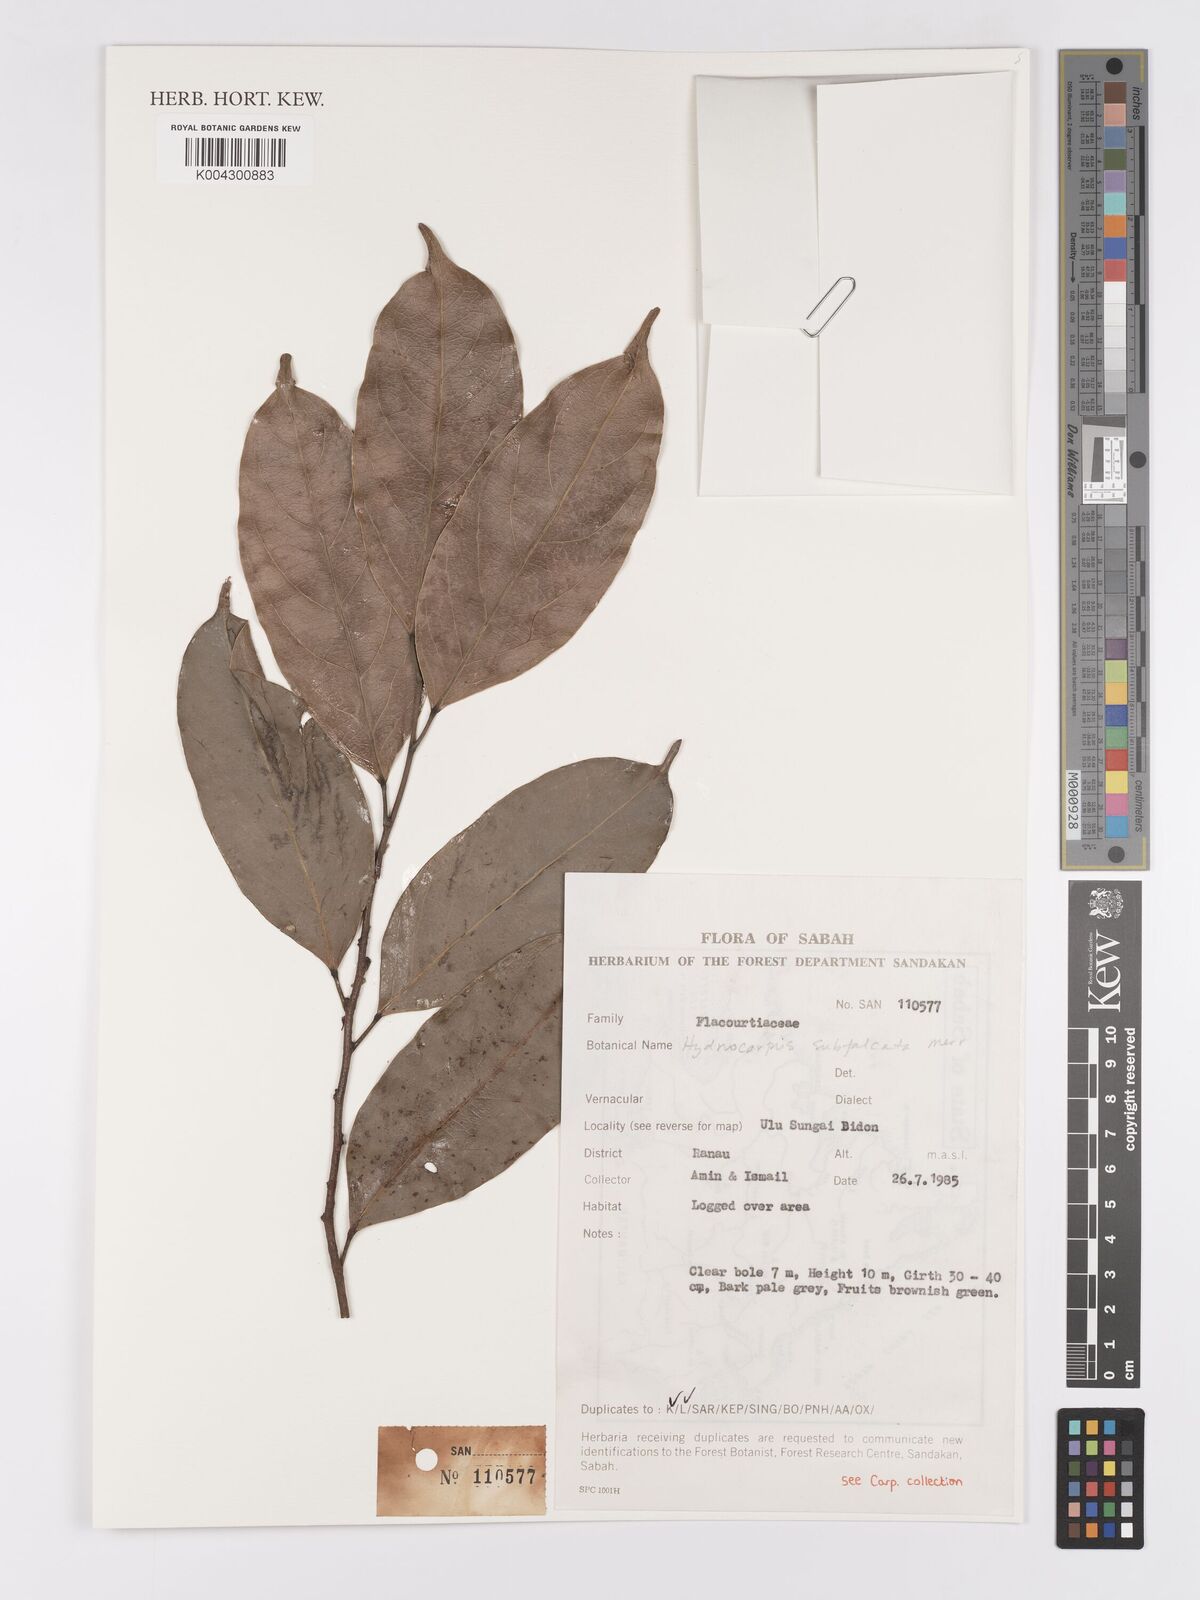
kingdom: Plantae
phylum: Tracheophyta
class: Magnoliopsida
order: Malpighiales
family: Achariaceae
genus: Hydnocarpus
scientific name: Hydnocarpus subfalcatus
